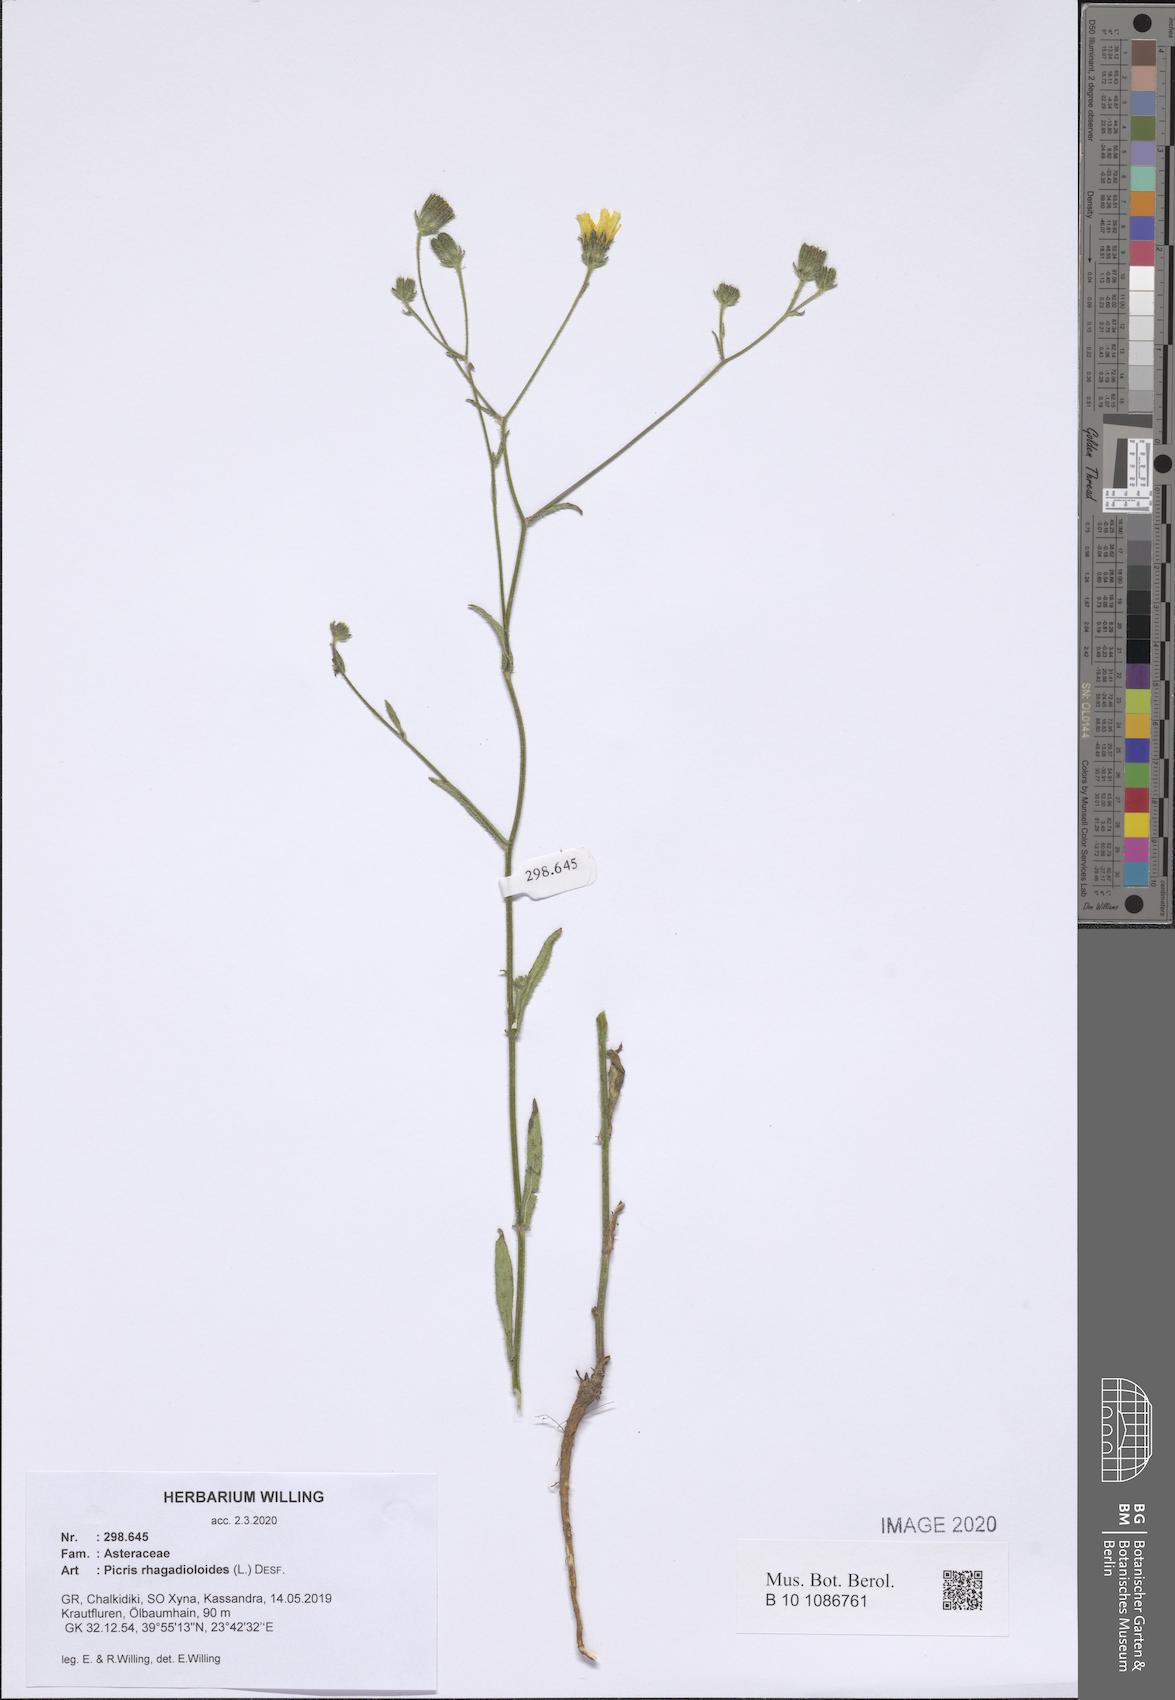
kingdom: Plantae
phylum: Tracheophyta
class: Magnoliopsida
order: Asterales
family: Asteraceae
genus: Picris
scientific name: Picris rhagadioloides
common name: Oxtongue
